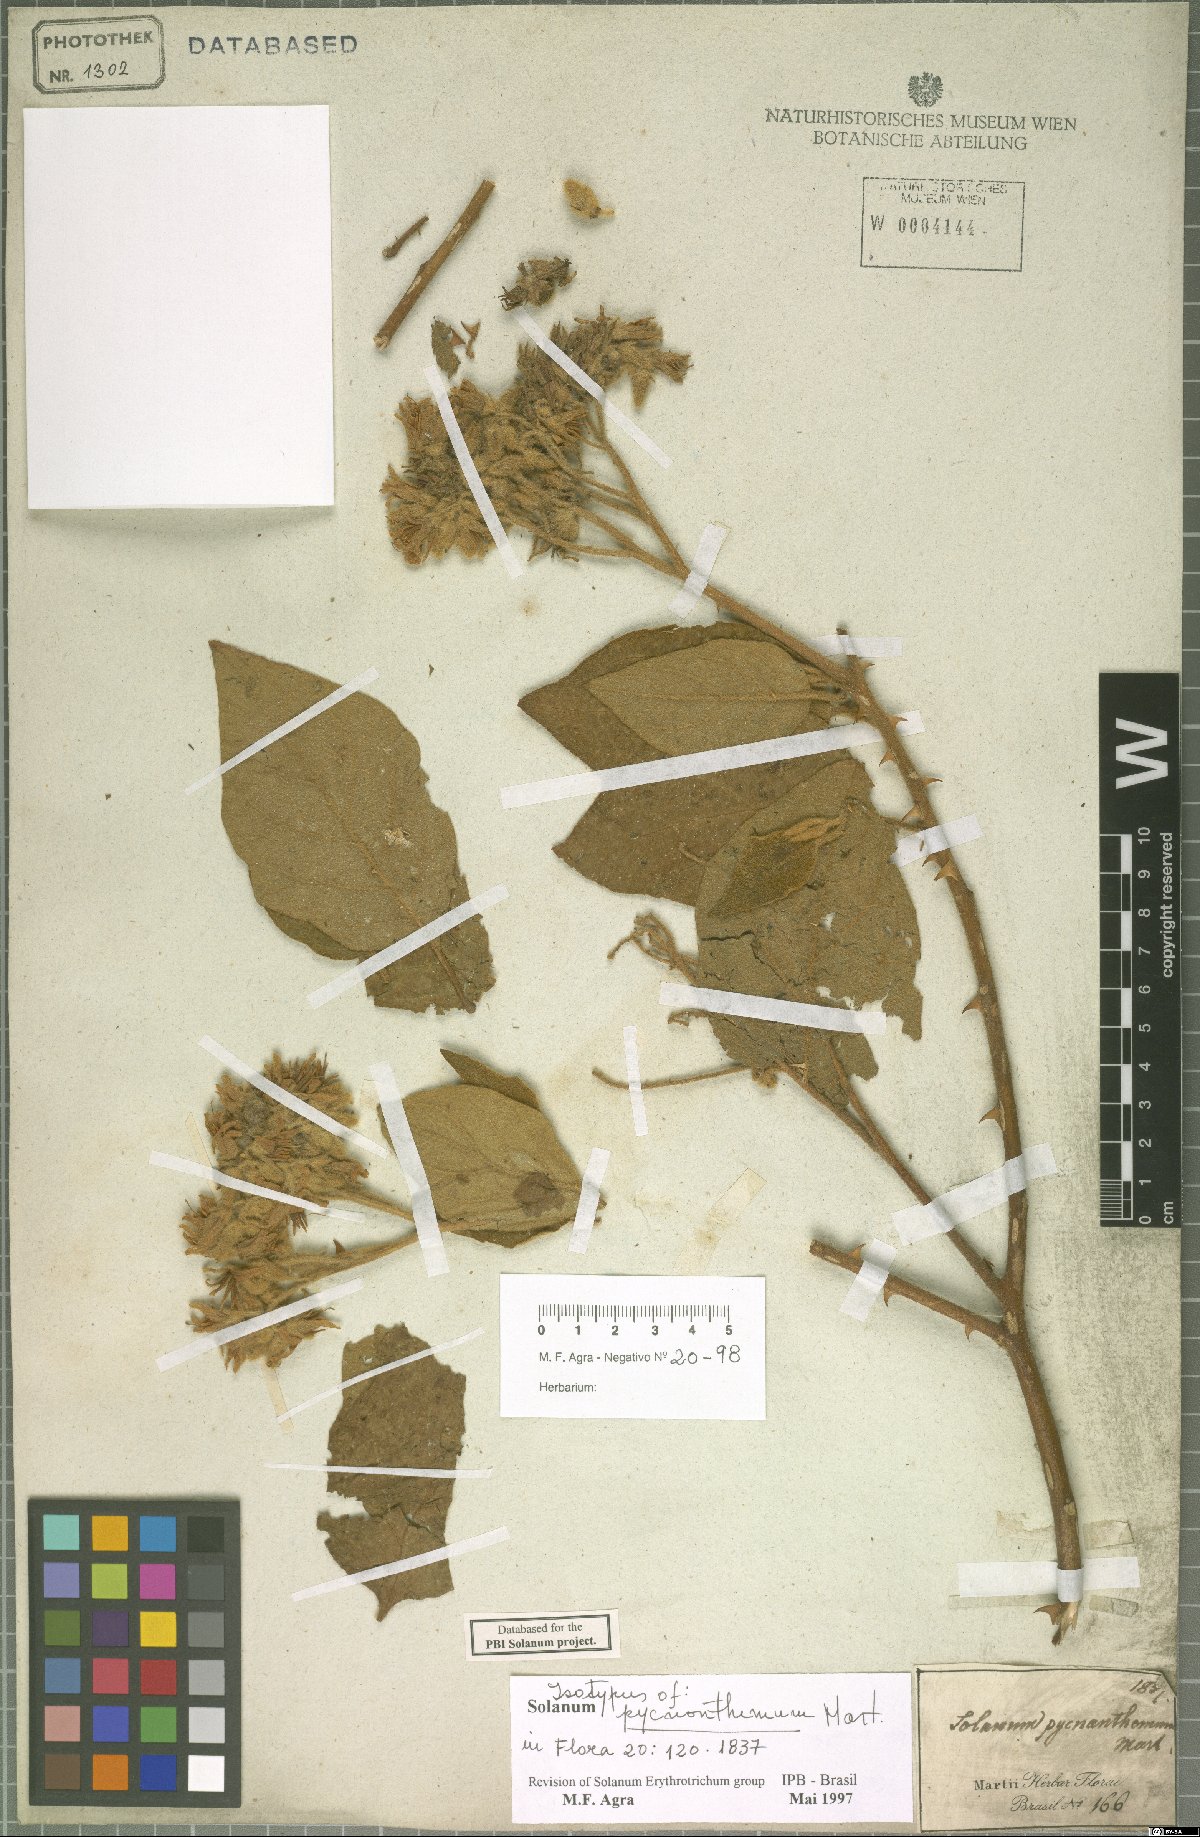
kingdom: Plantae
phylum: Tracheophyta
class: Magnoliopsida
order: Solanales
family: Solanaceae
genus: Solanum
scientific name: Solanum pycnanthemum
